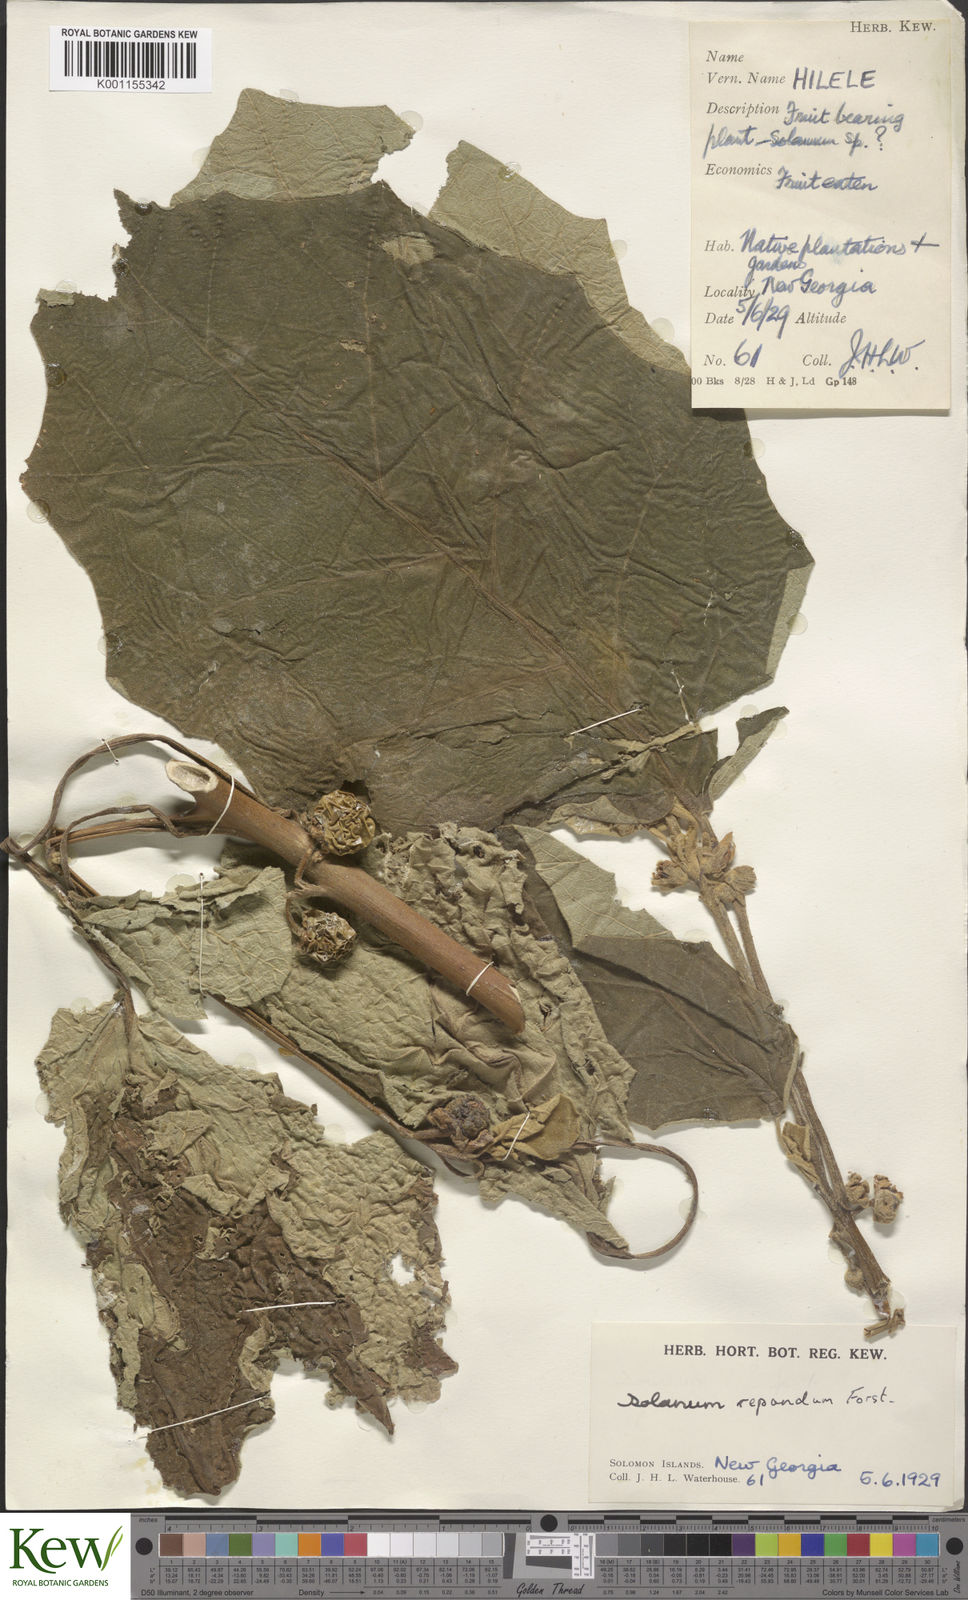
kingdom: Plantae
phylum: Tracheophyta
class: Magnoliopsida
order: Solanales
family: Solanaceae
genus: Solanum
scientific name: Solanum repandum
